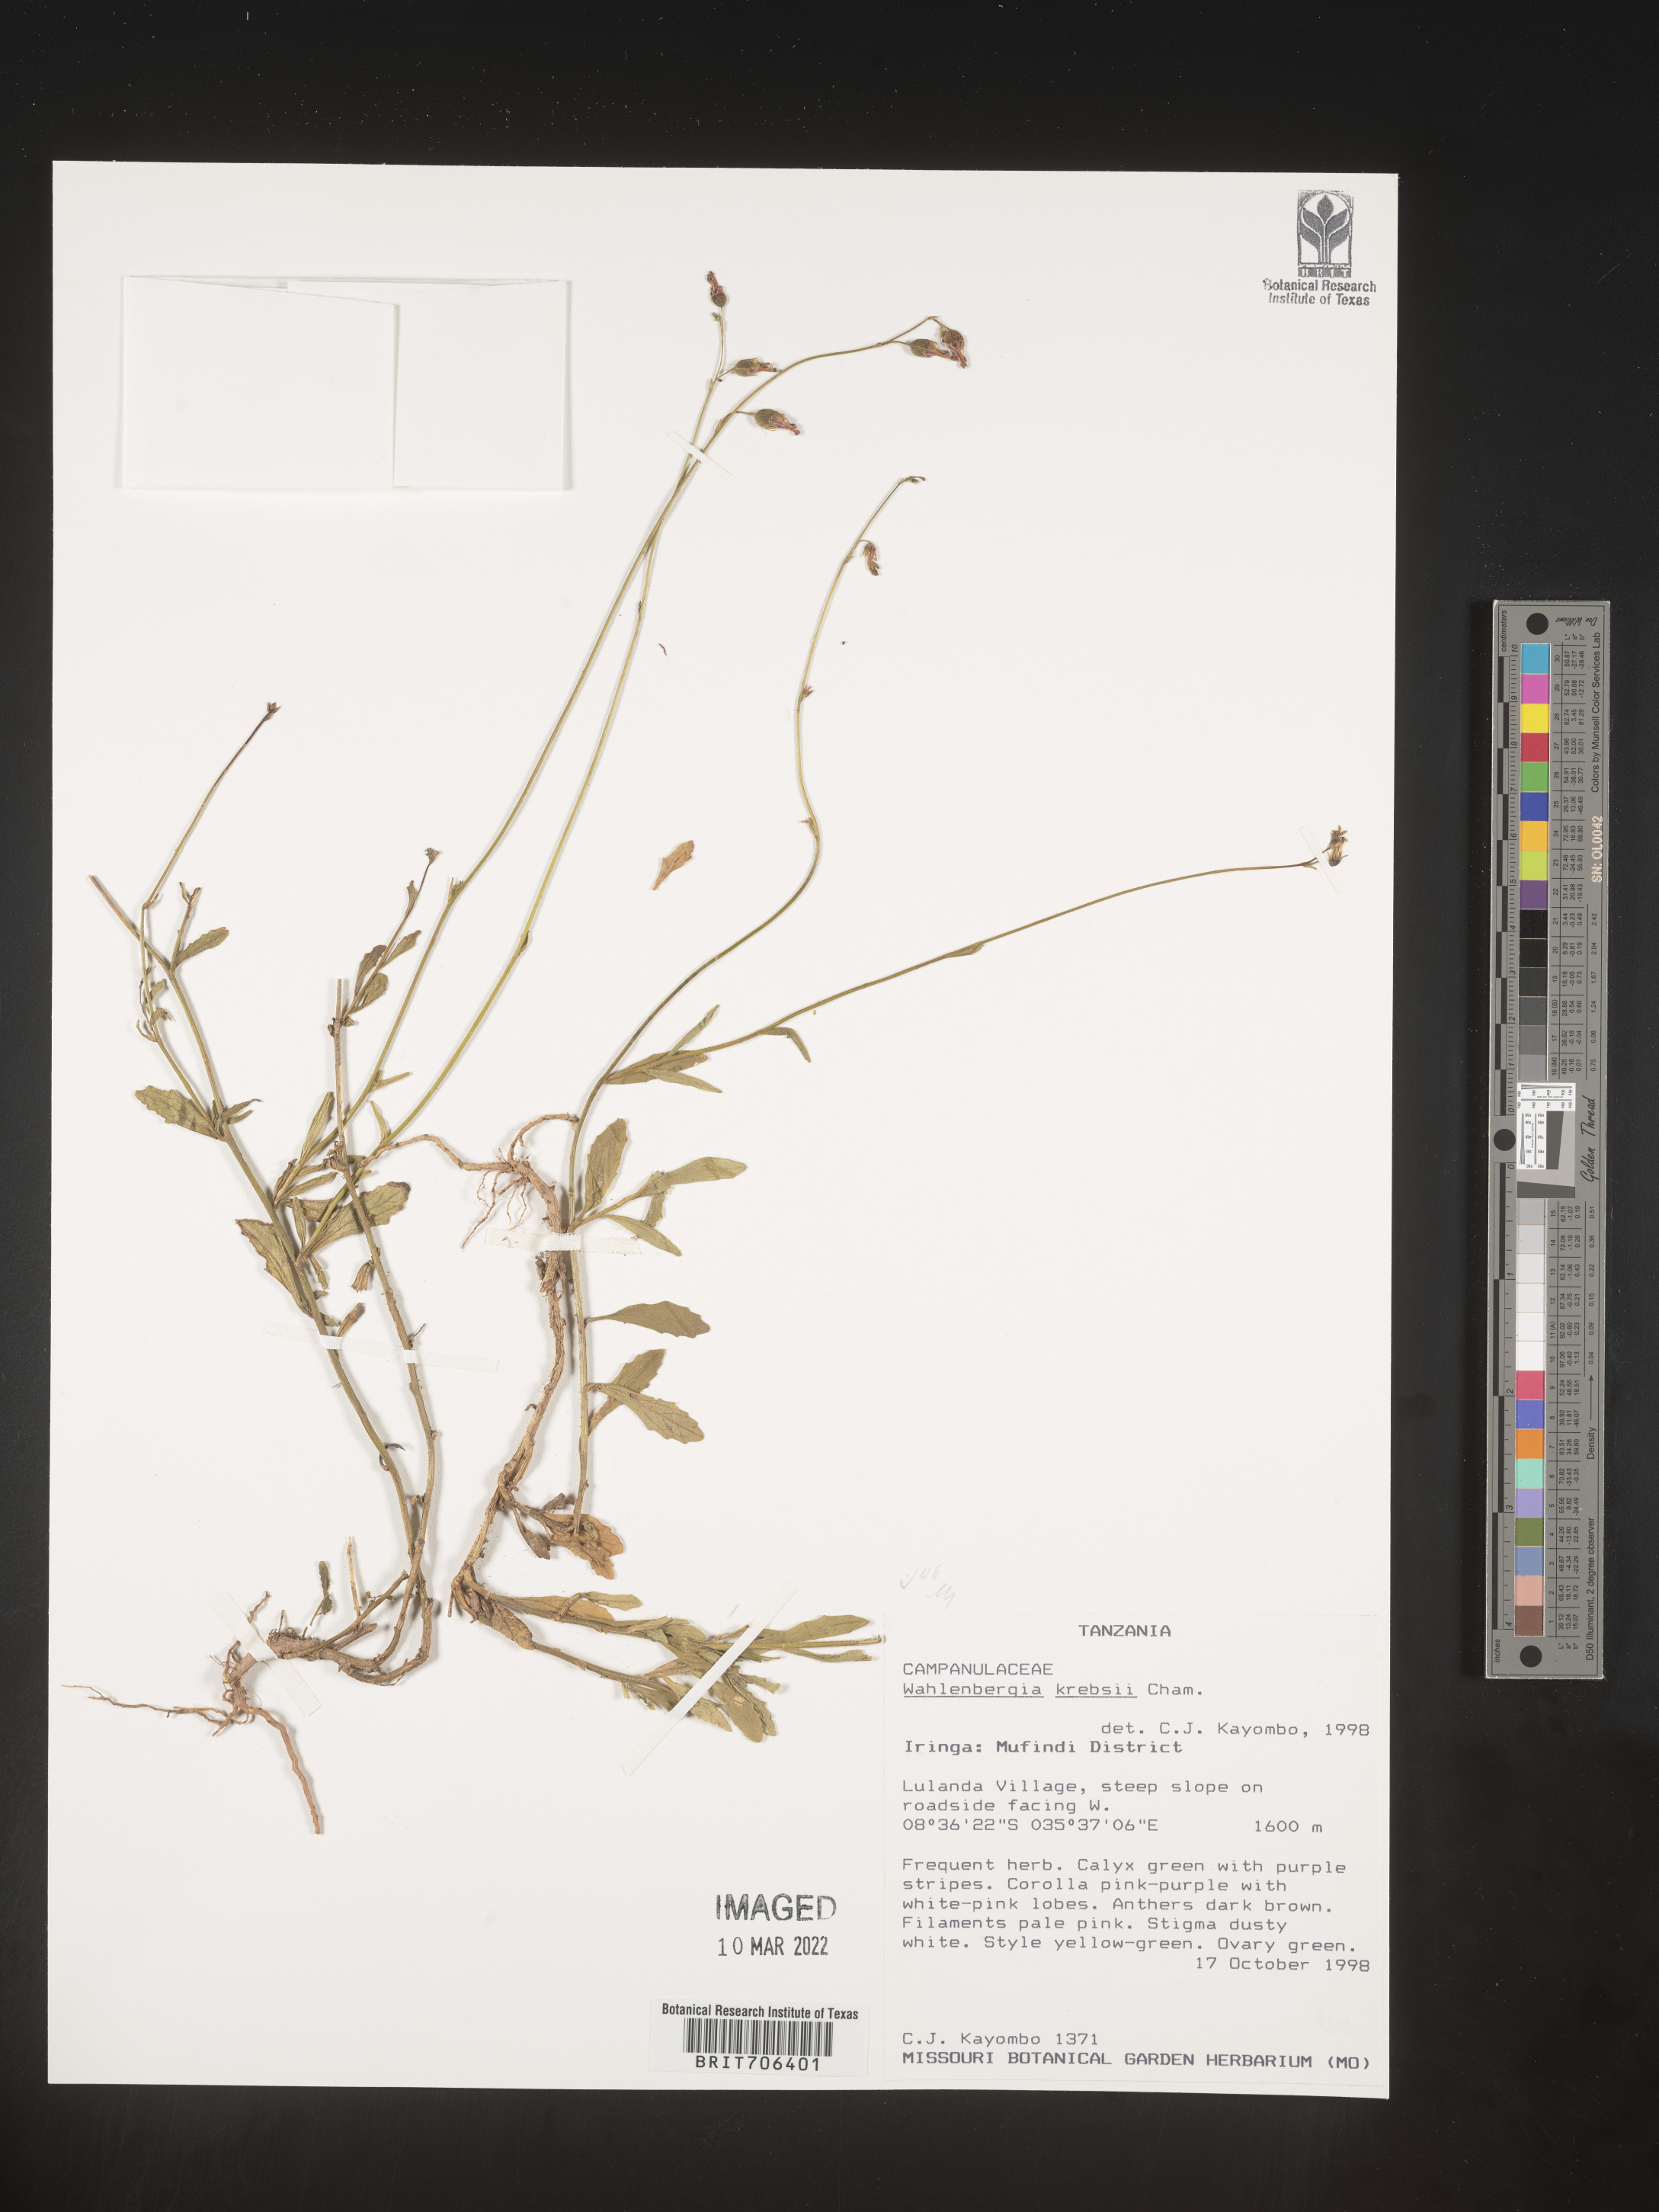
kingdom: Plantae
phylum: Tracheophyta
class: Magnoliopsida
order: Asterales
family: Campanulaceae
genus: Wahlenbergia
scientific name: Wahlenbergia
